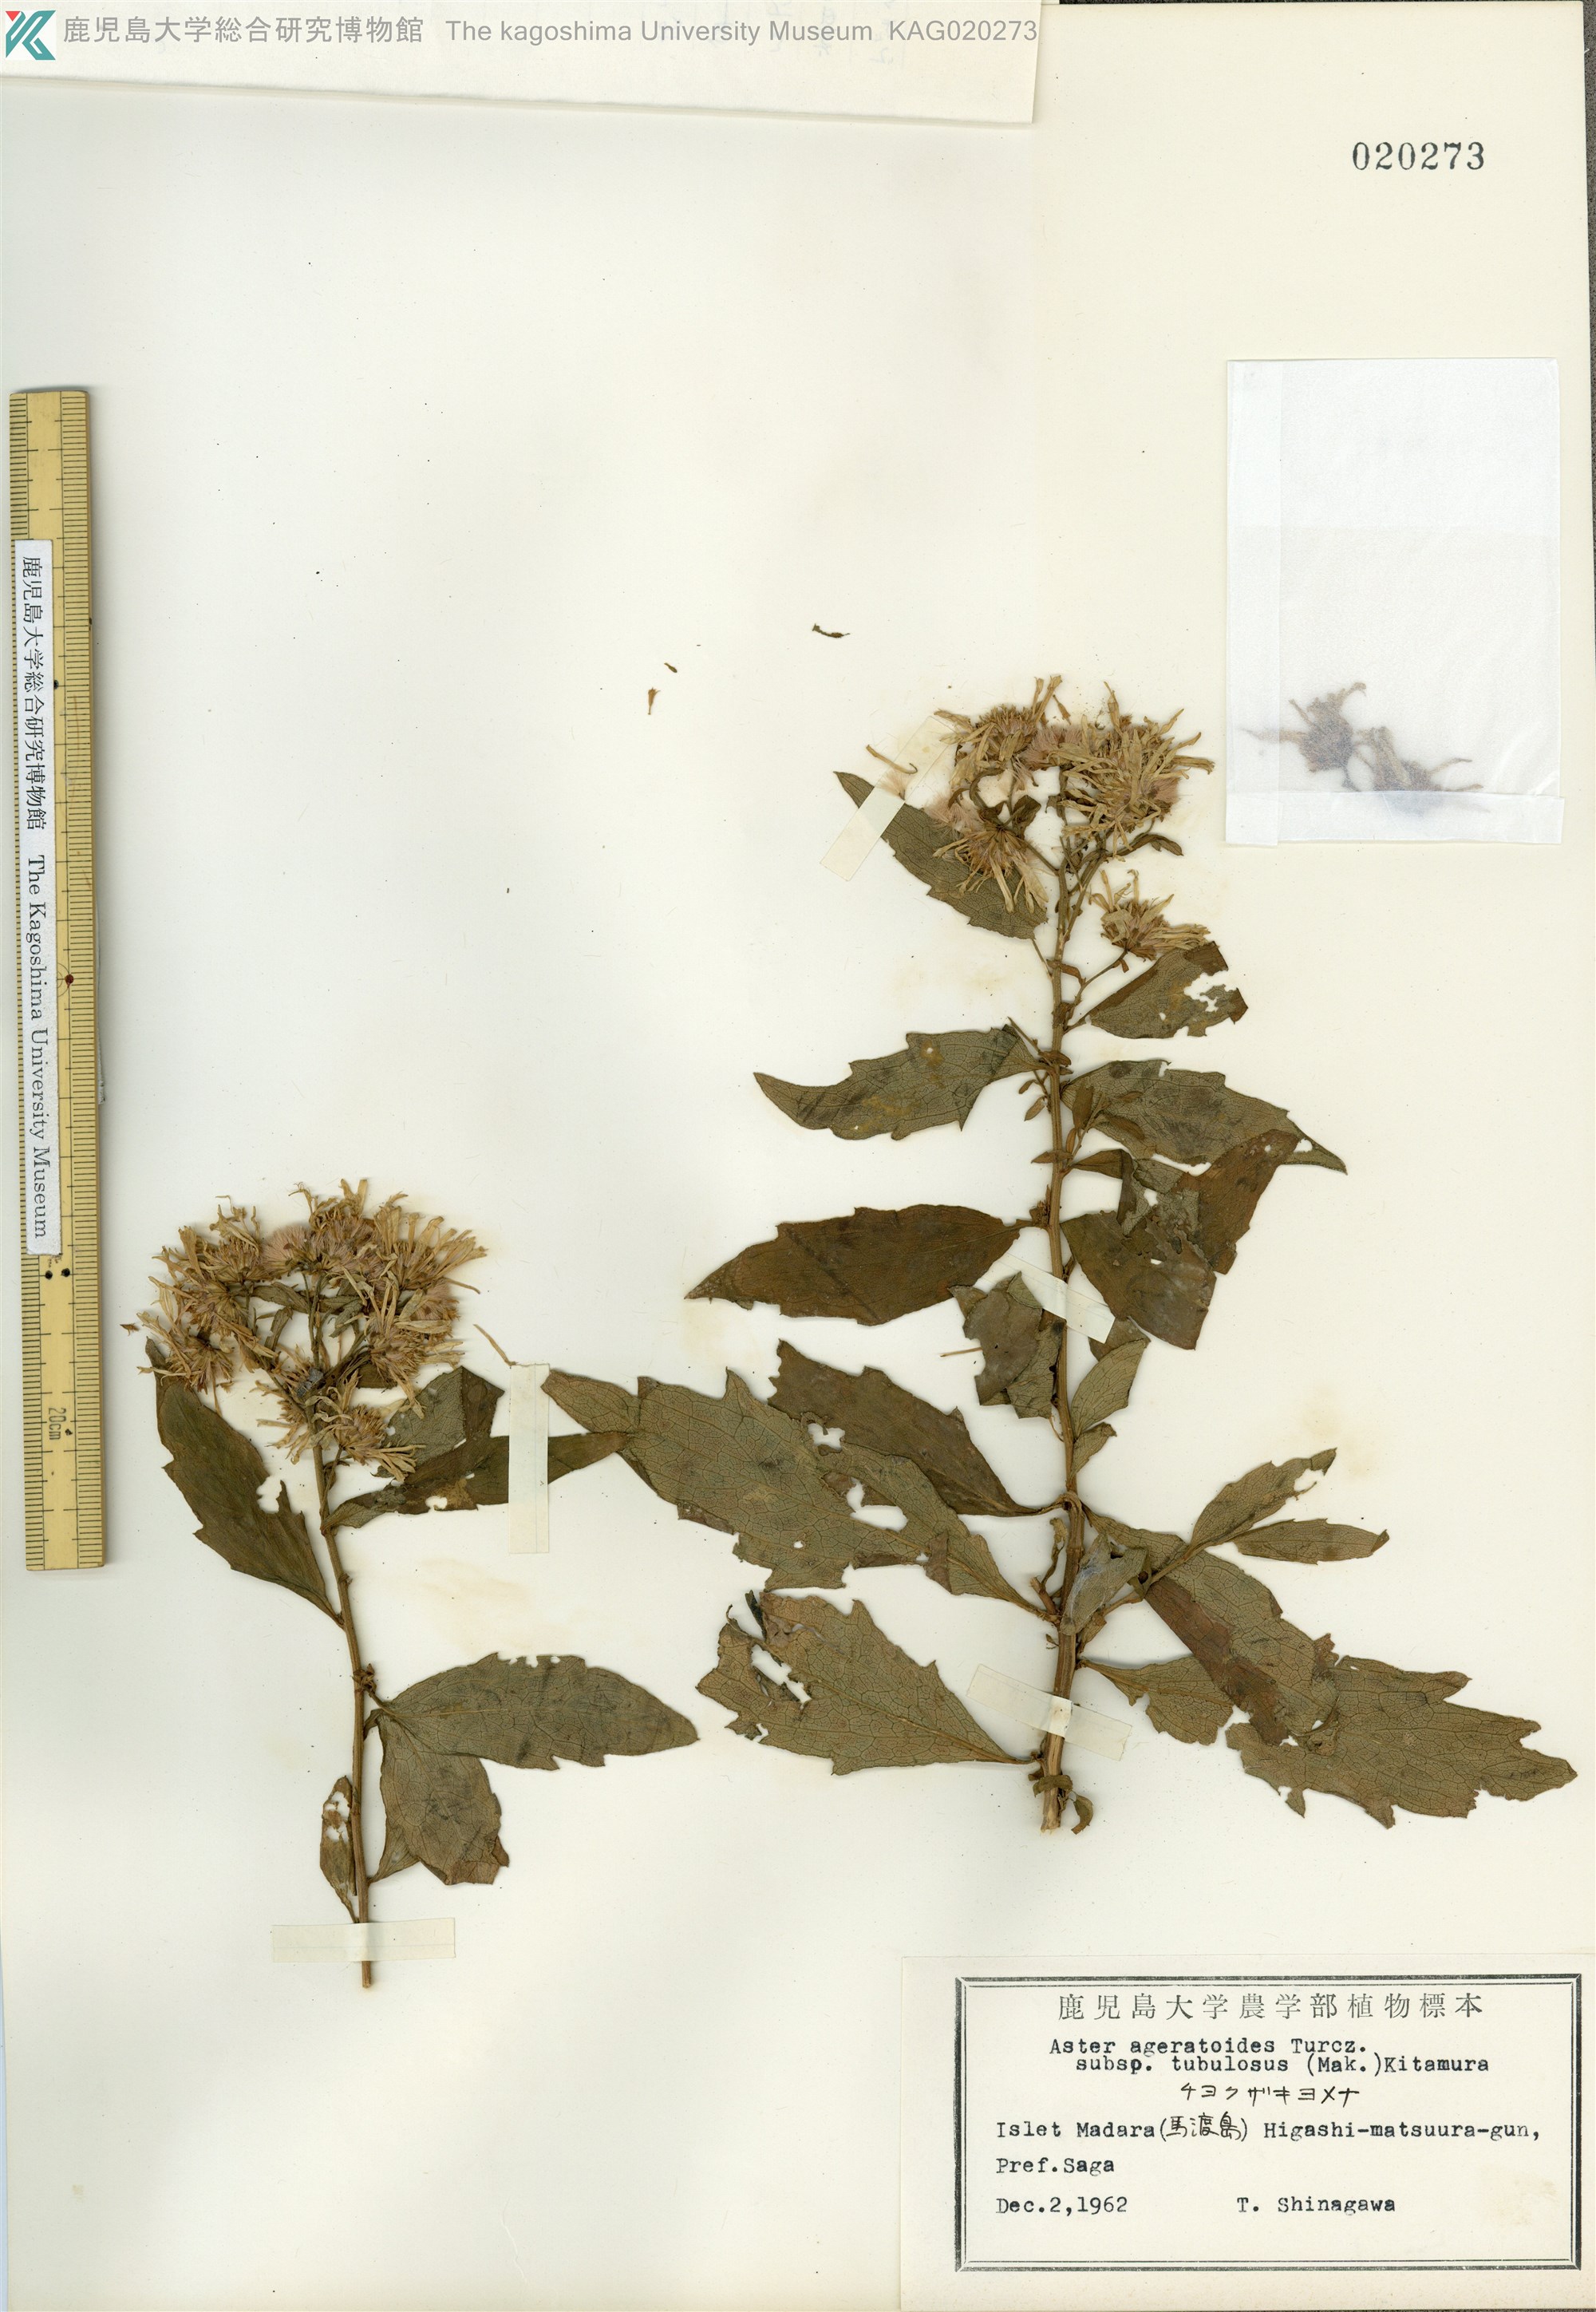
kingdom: Plantae
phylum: Tracheophyta
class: Magnoliopsida
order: Asterales
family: Asteraceae
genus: Aster
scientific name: Aster microcephalus
